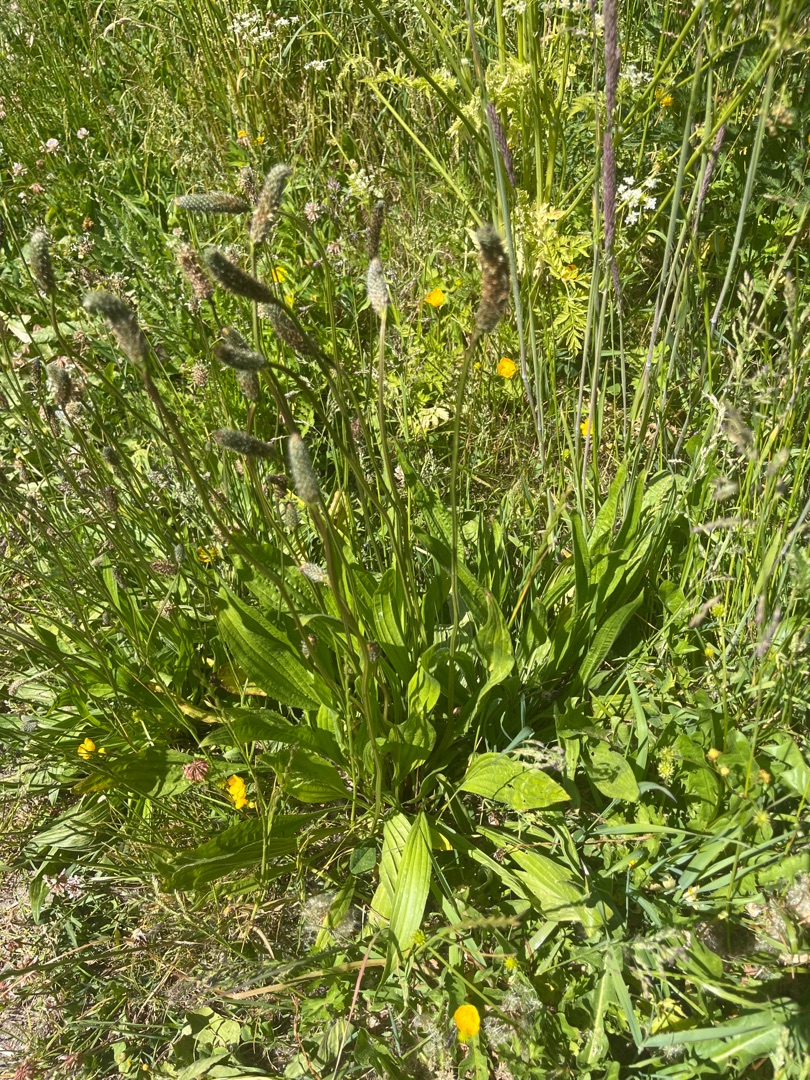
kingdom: Plantae
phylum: Tracheophyta
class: Magnoliopsida
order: Lamiales
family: Plantaginaceae
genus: Plantago
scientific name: Plantago lanceolata
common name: Lancet-vejbred
